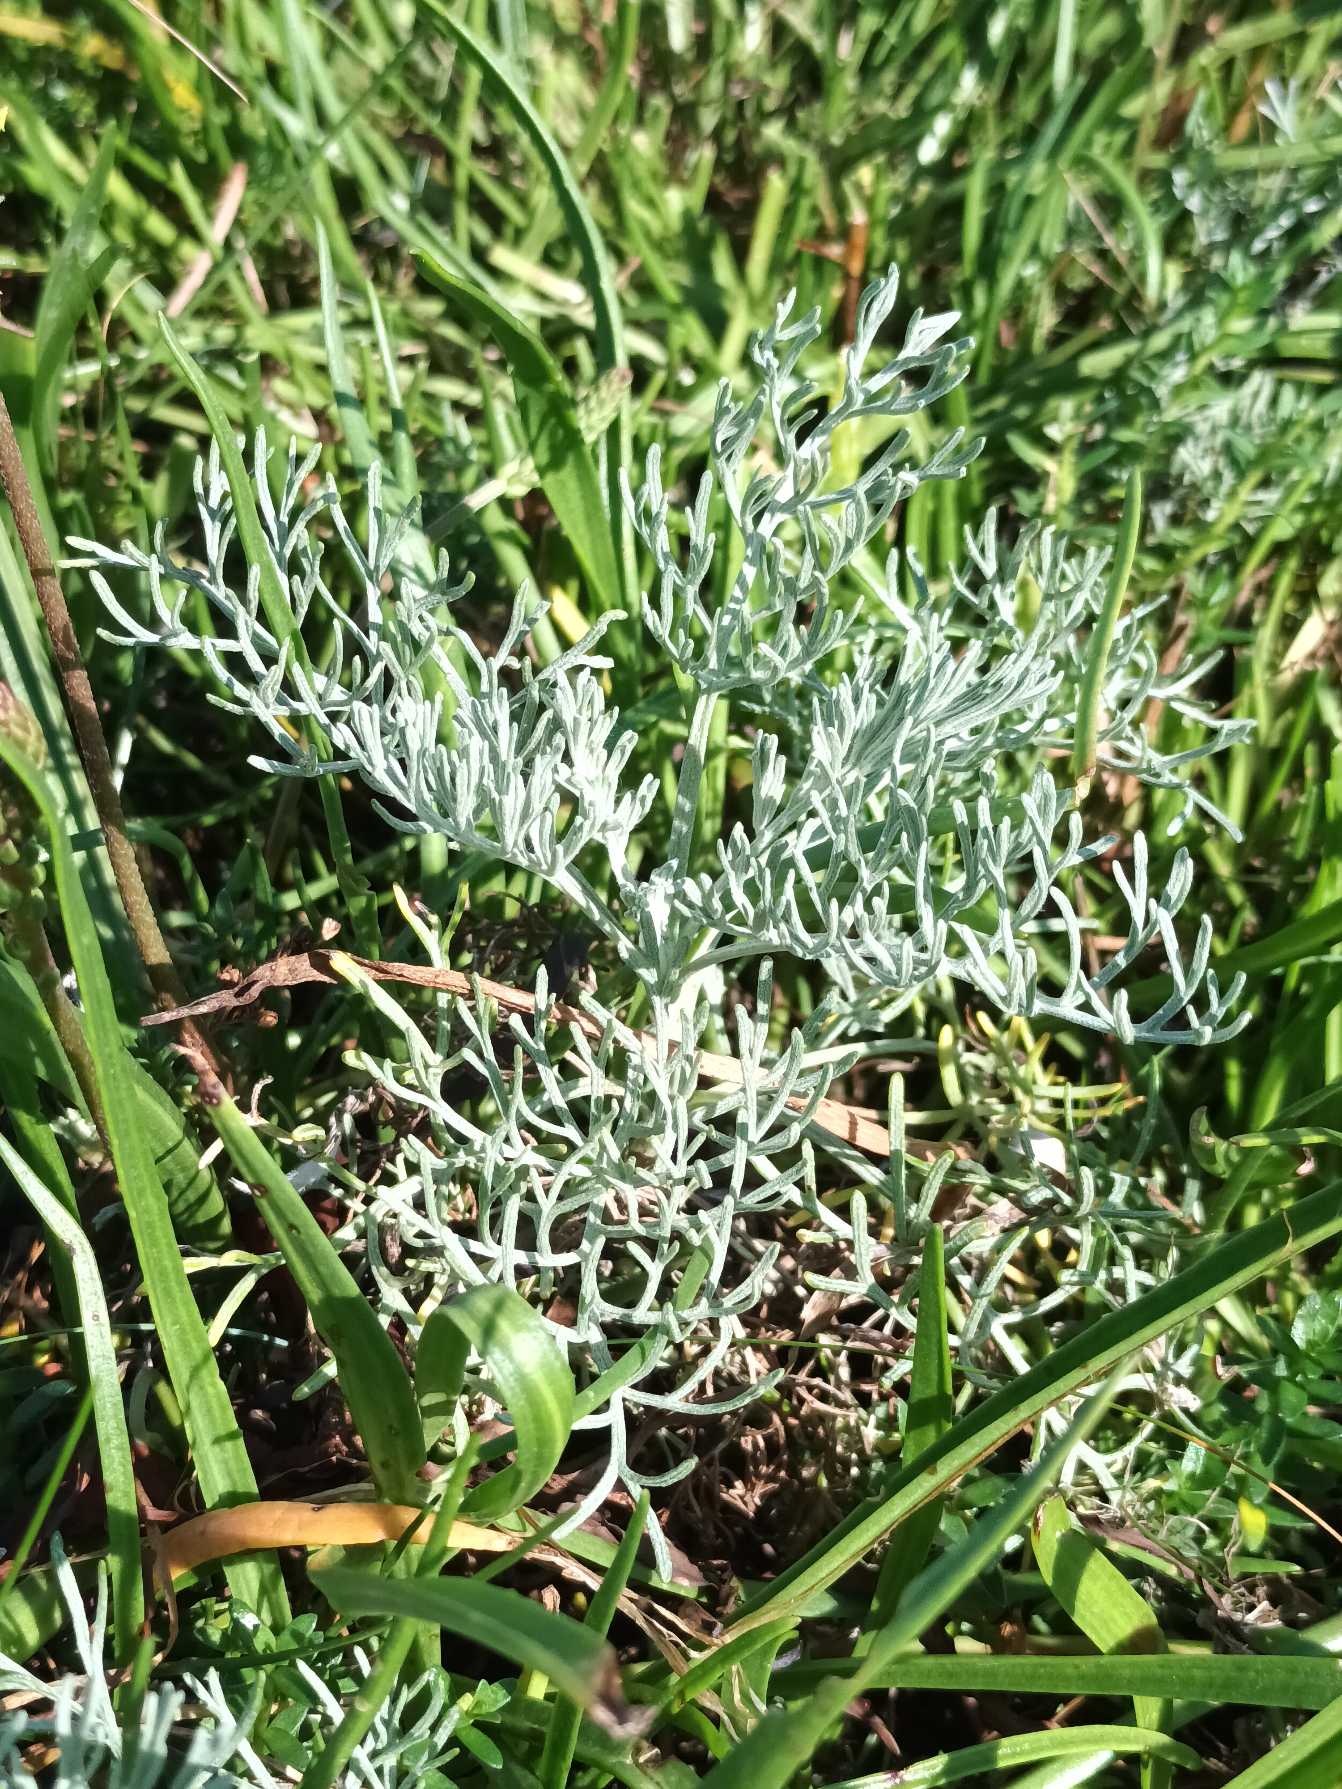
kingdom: Plantae
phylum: Tracheophyta
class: Magnoliopsida
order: Asterales
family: Asteraceae
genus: Artemisia
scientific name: Artemisia maritima
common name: Strandmalurt
